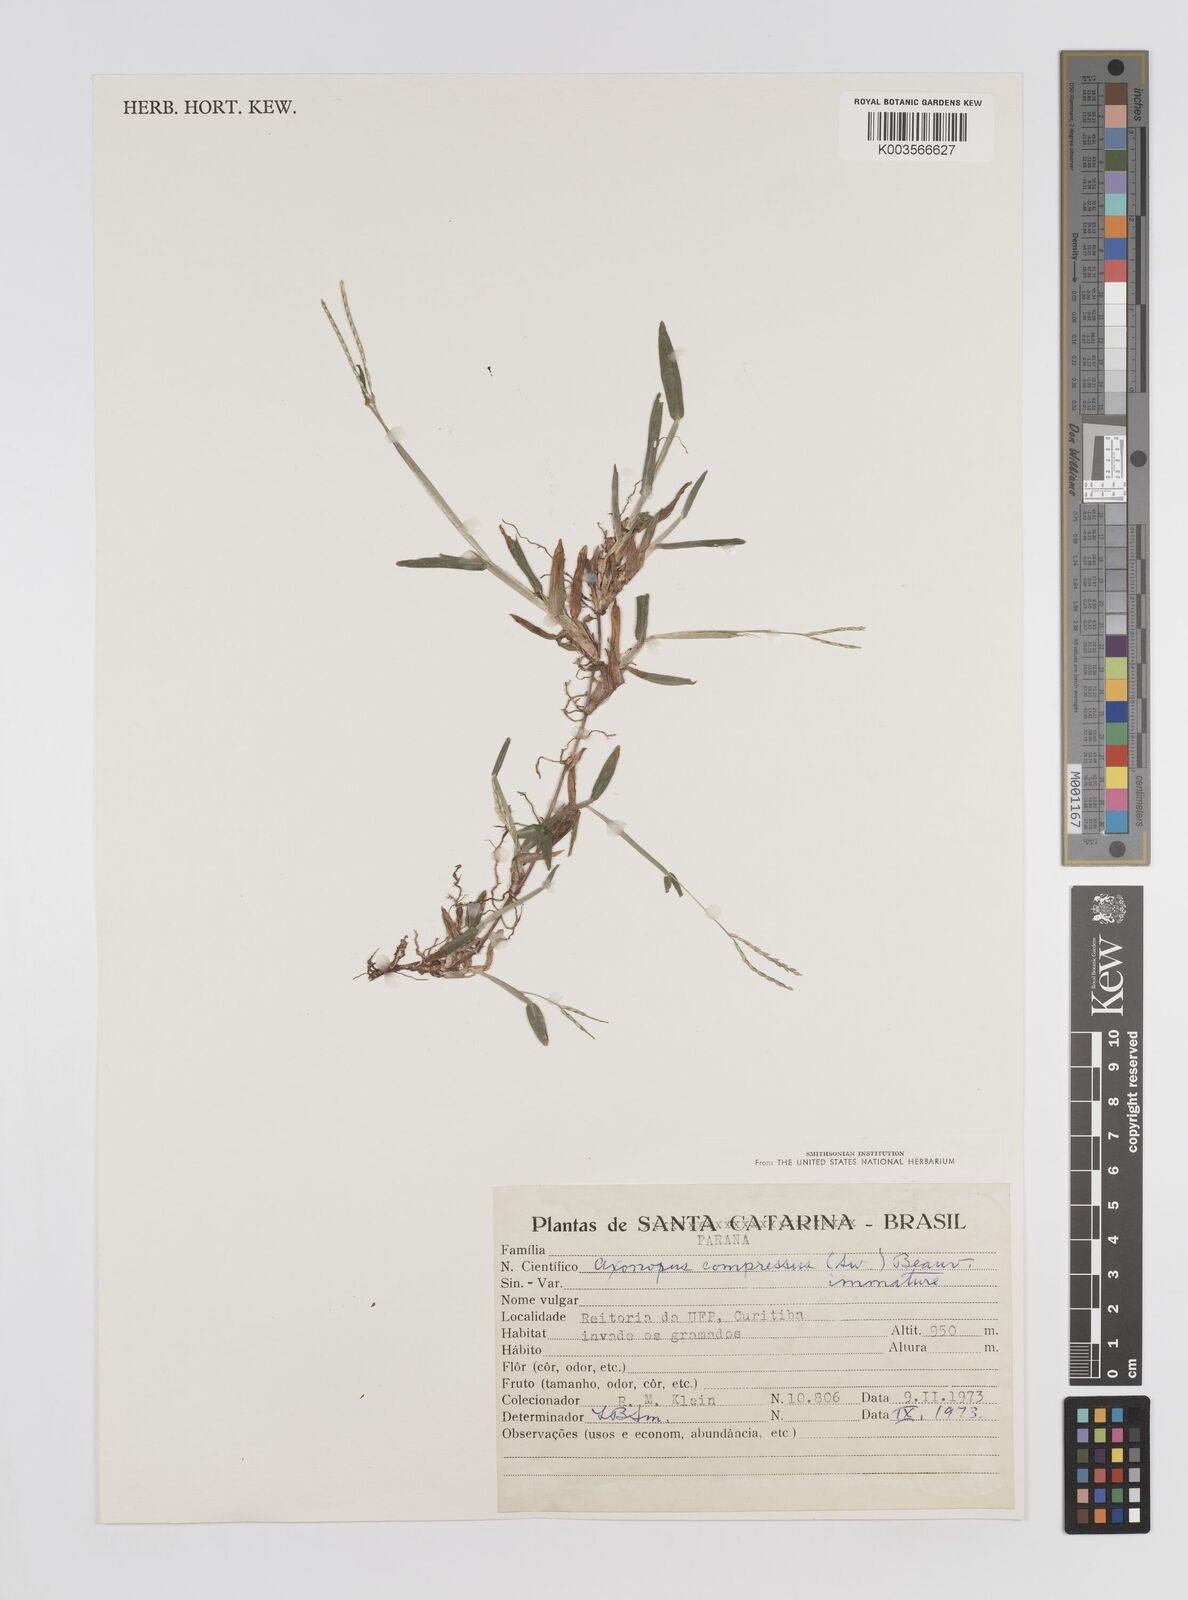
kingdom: Plantae
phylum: Tracheophyta
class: Liliopsida
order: Poales
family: Poaceae
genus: Axonopus
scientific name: Axonopus compressus
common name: American carpet grass
